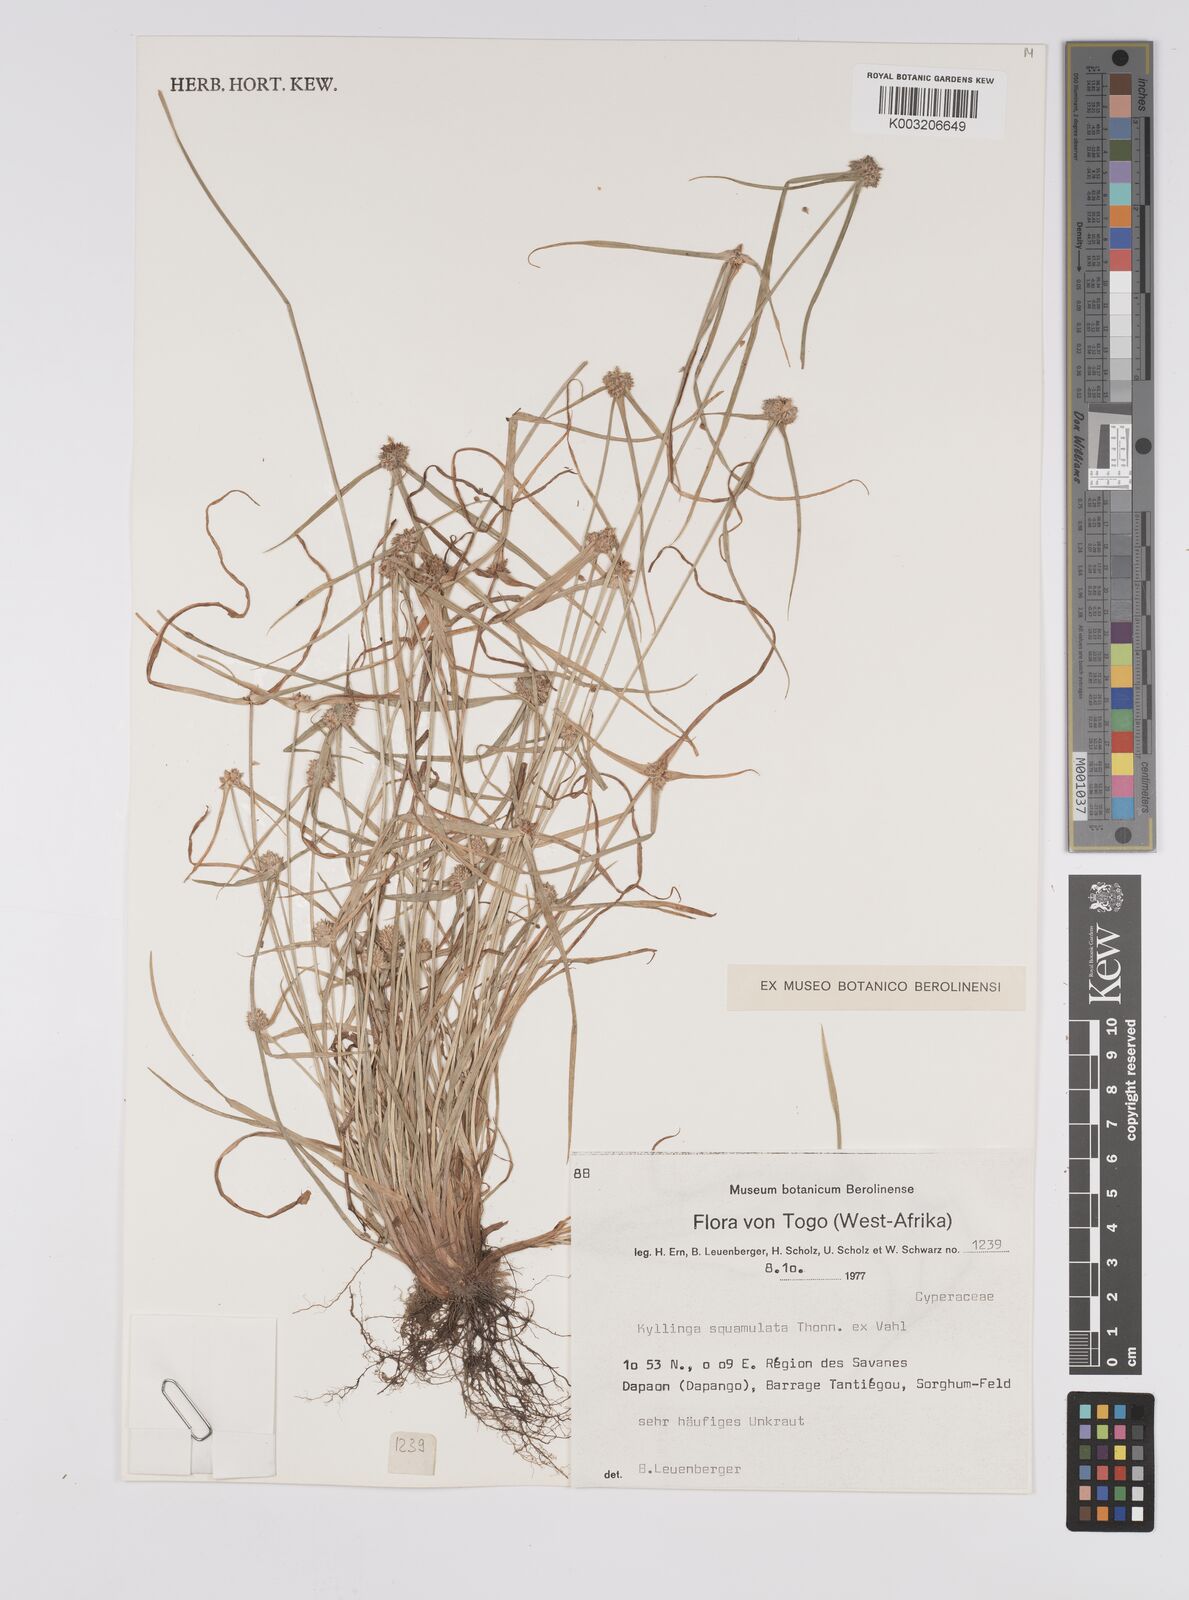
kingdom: Plantae
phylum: Tracheophyta
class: Liliopsida
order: Poales
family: Cyperaceae
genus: Cyperus
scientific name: Cyperus distans
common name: Slender cyperus
